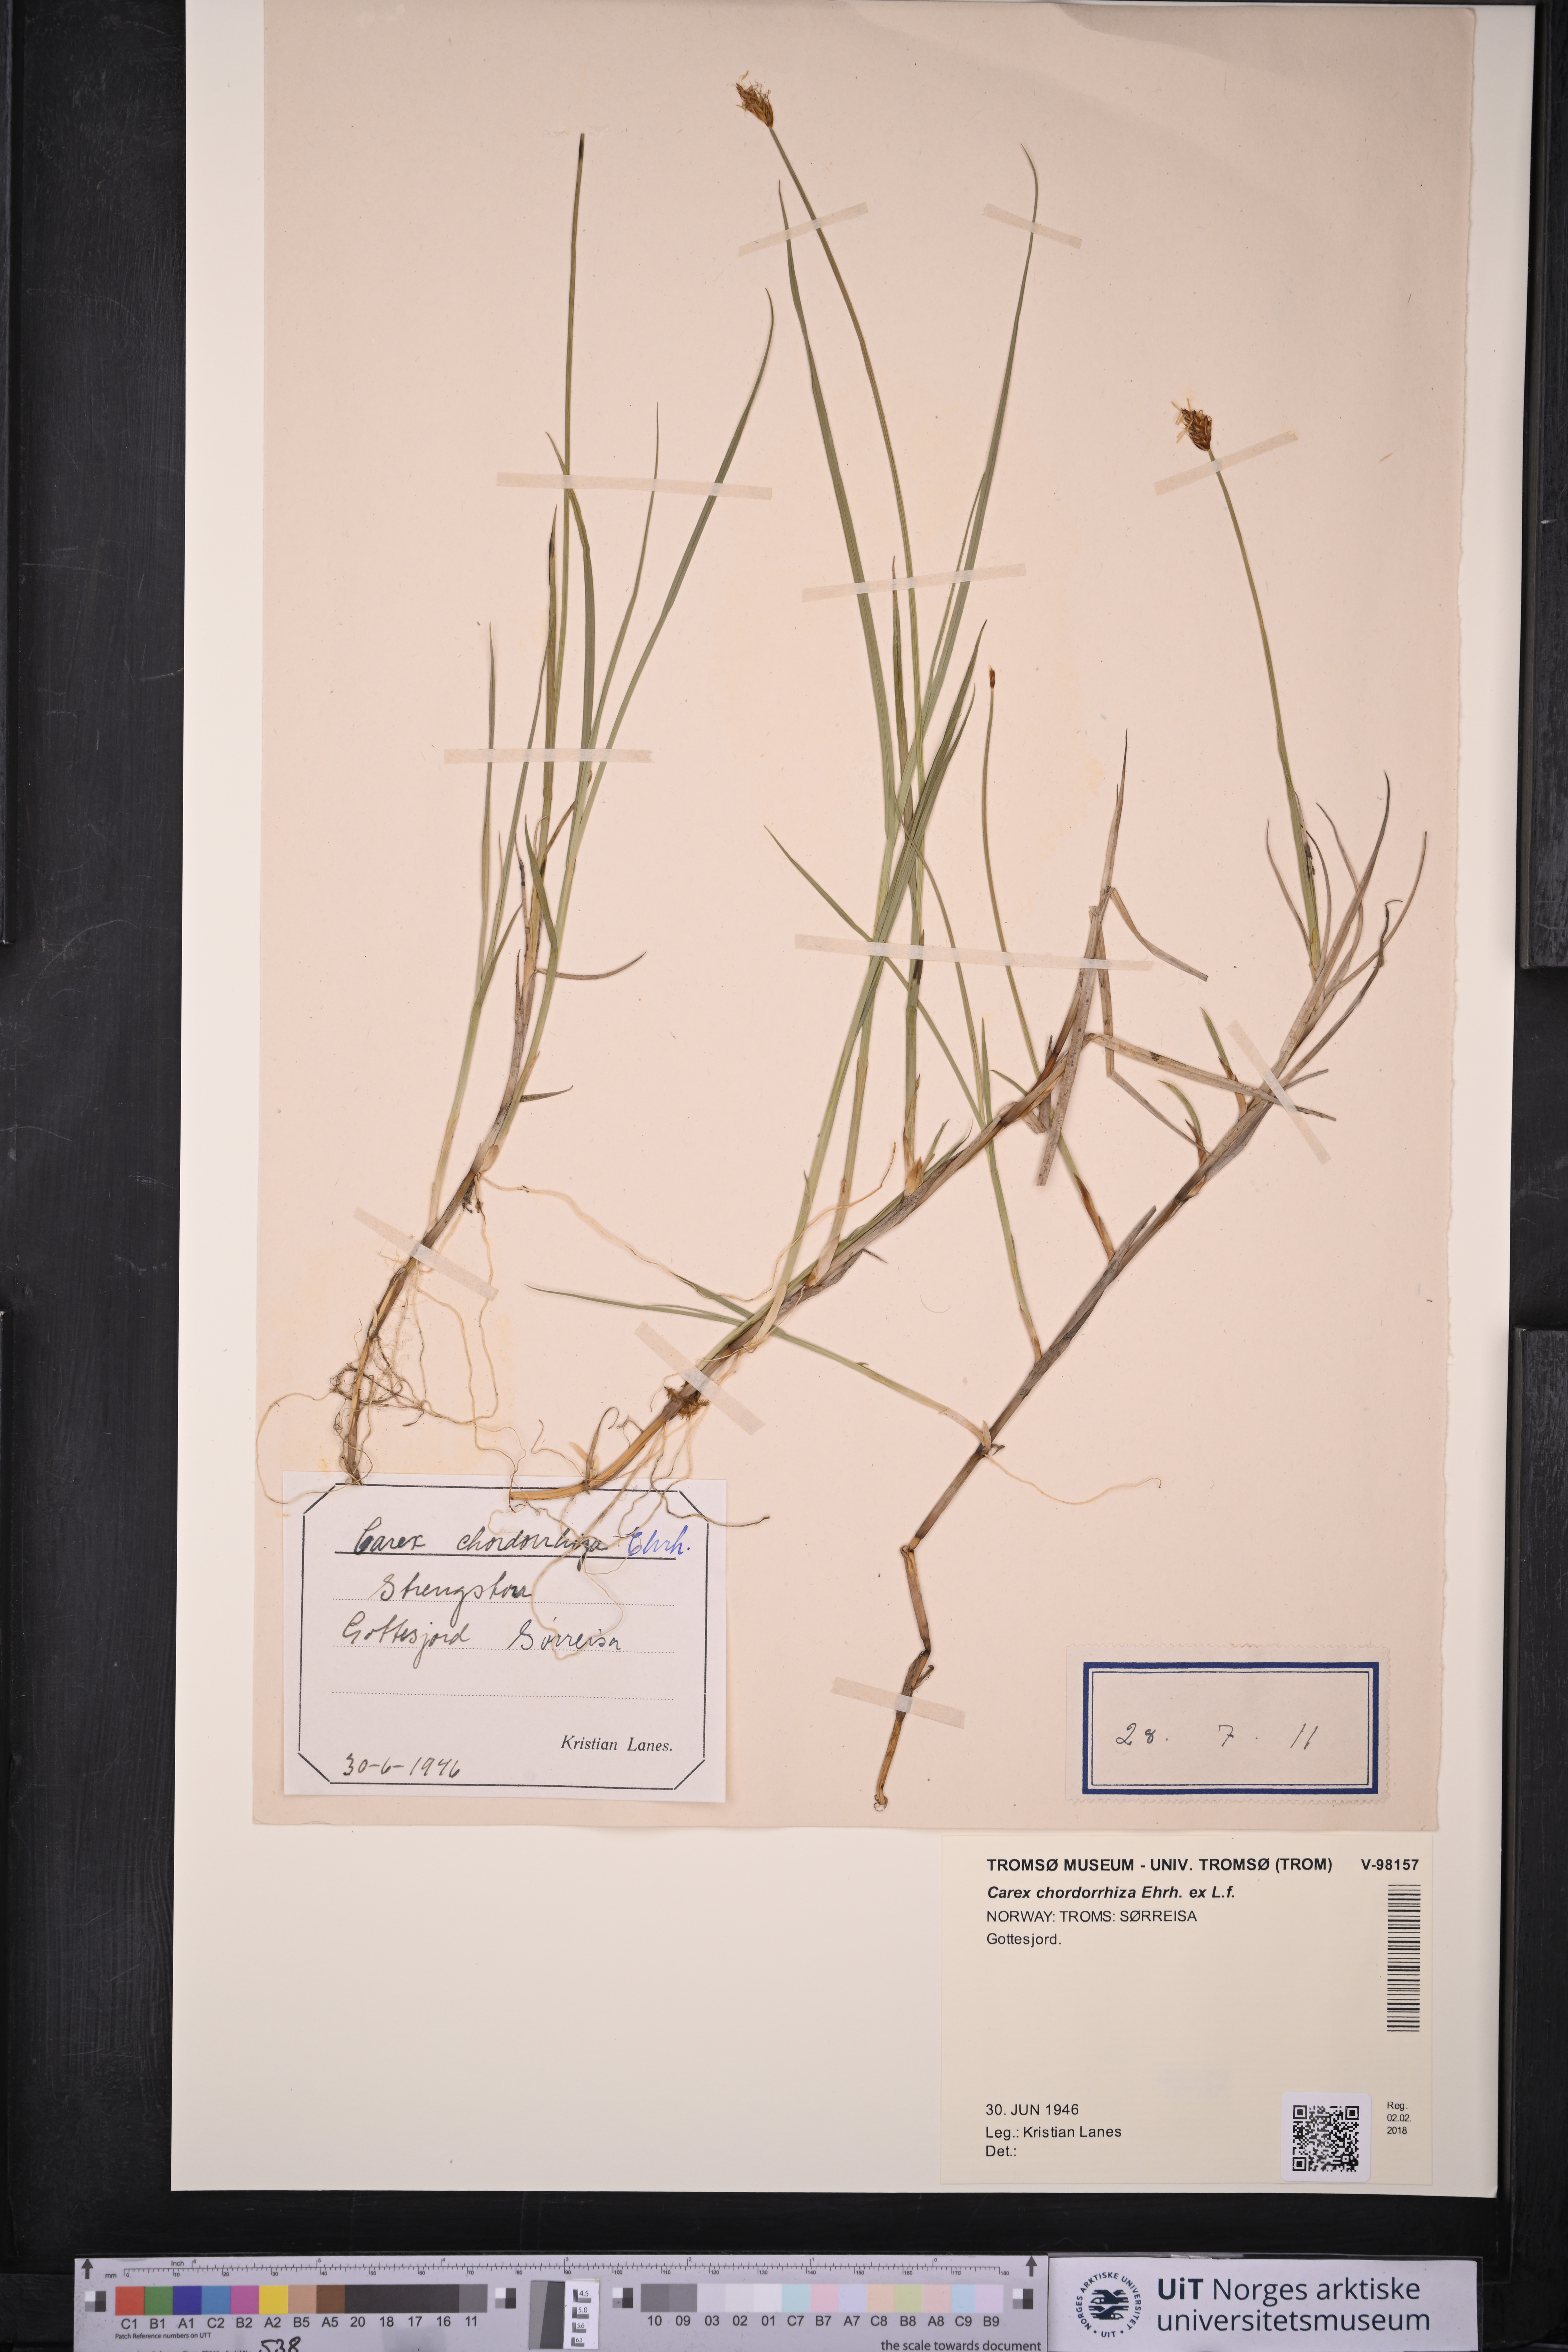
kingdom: Plantae
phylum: Tracheophyta
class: Liliopsida
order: Poales
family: Cyperaceae
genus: Carex
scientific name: Carex chordorrhiza
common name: String sedge
